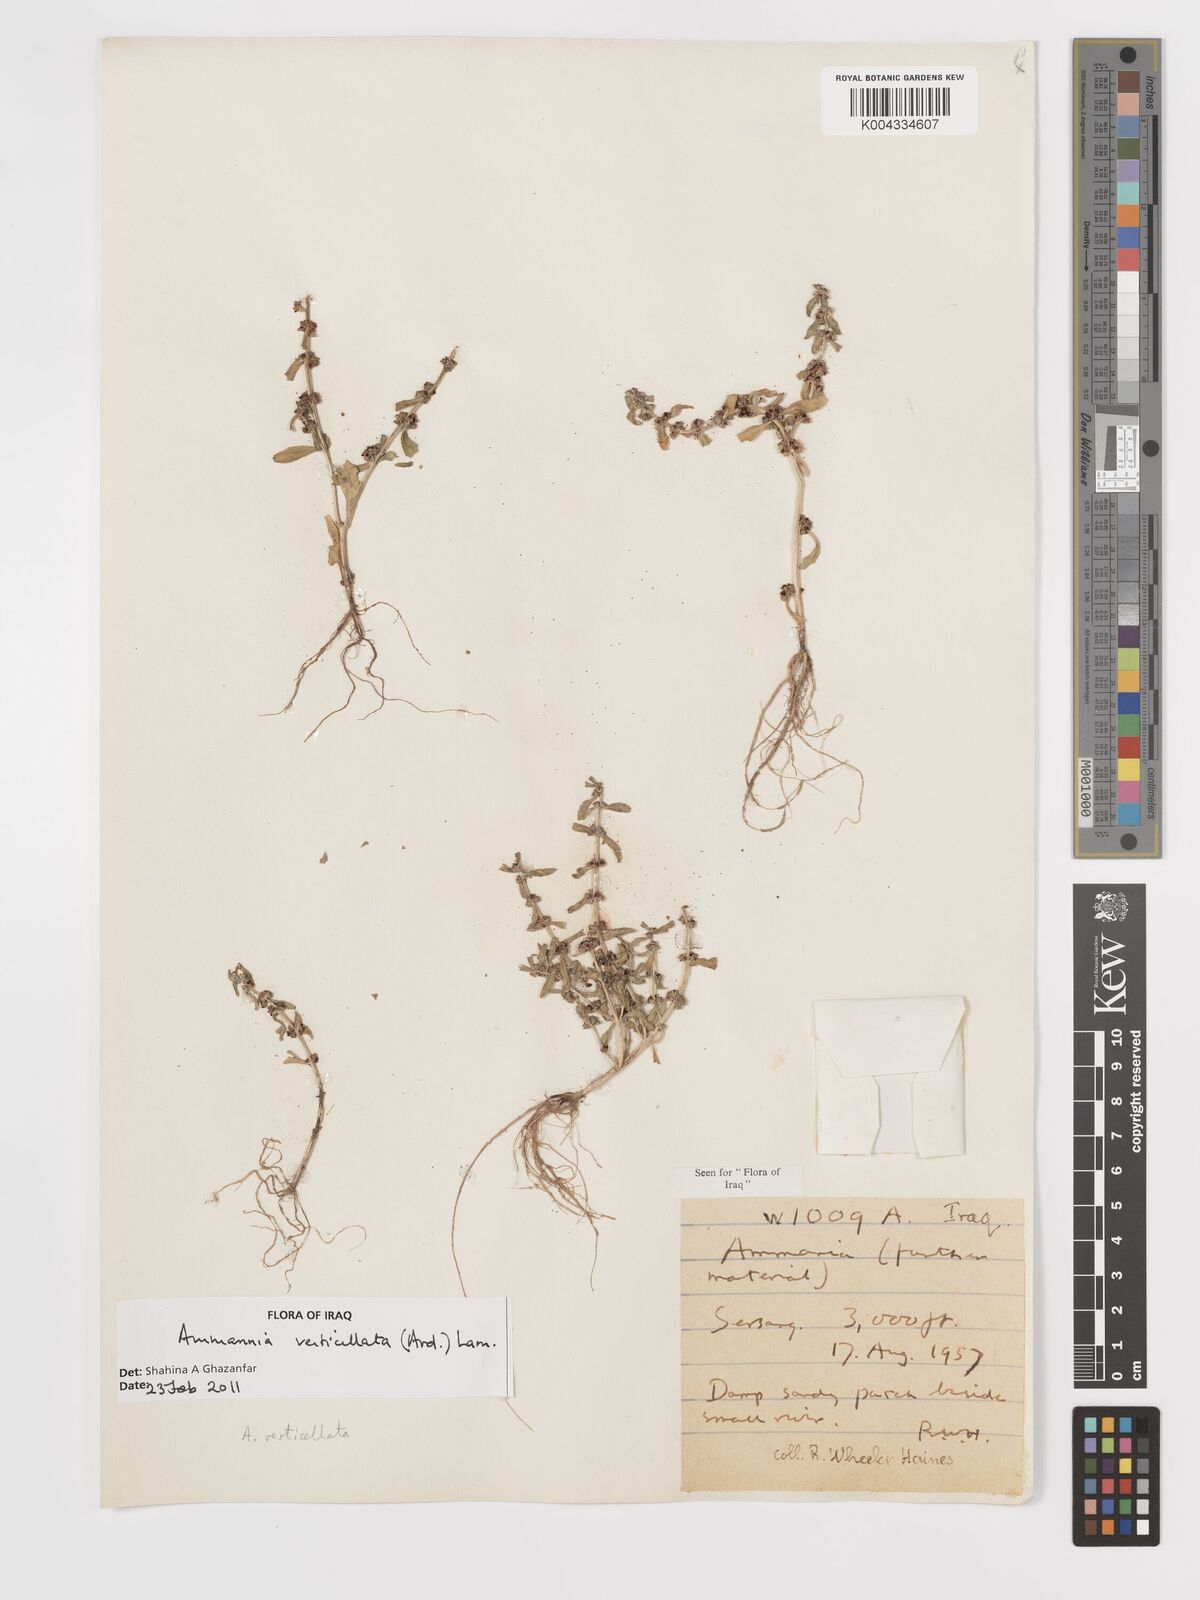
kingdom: Plantae
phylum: Tracheophyta
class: Magnoliopsida
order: Myrtales
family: Lythraceae
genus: Ammannia
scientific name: Ammannia baccifera
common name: Blistering ammania
